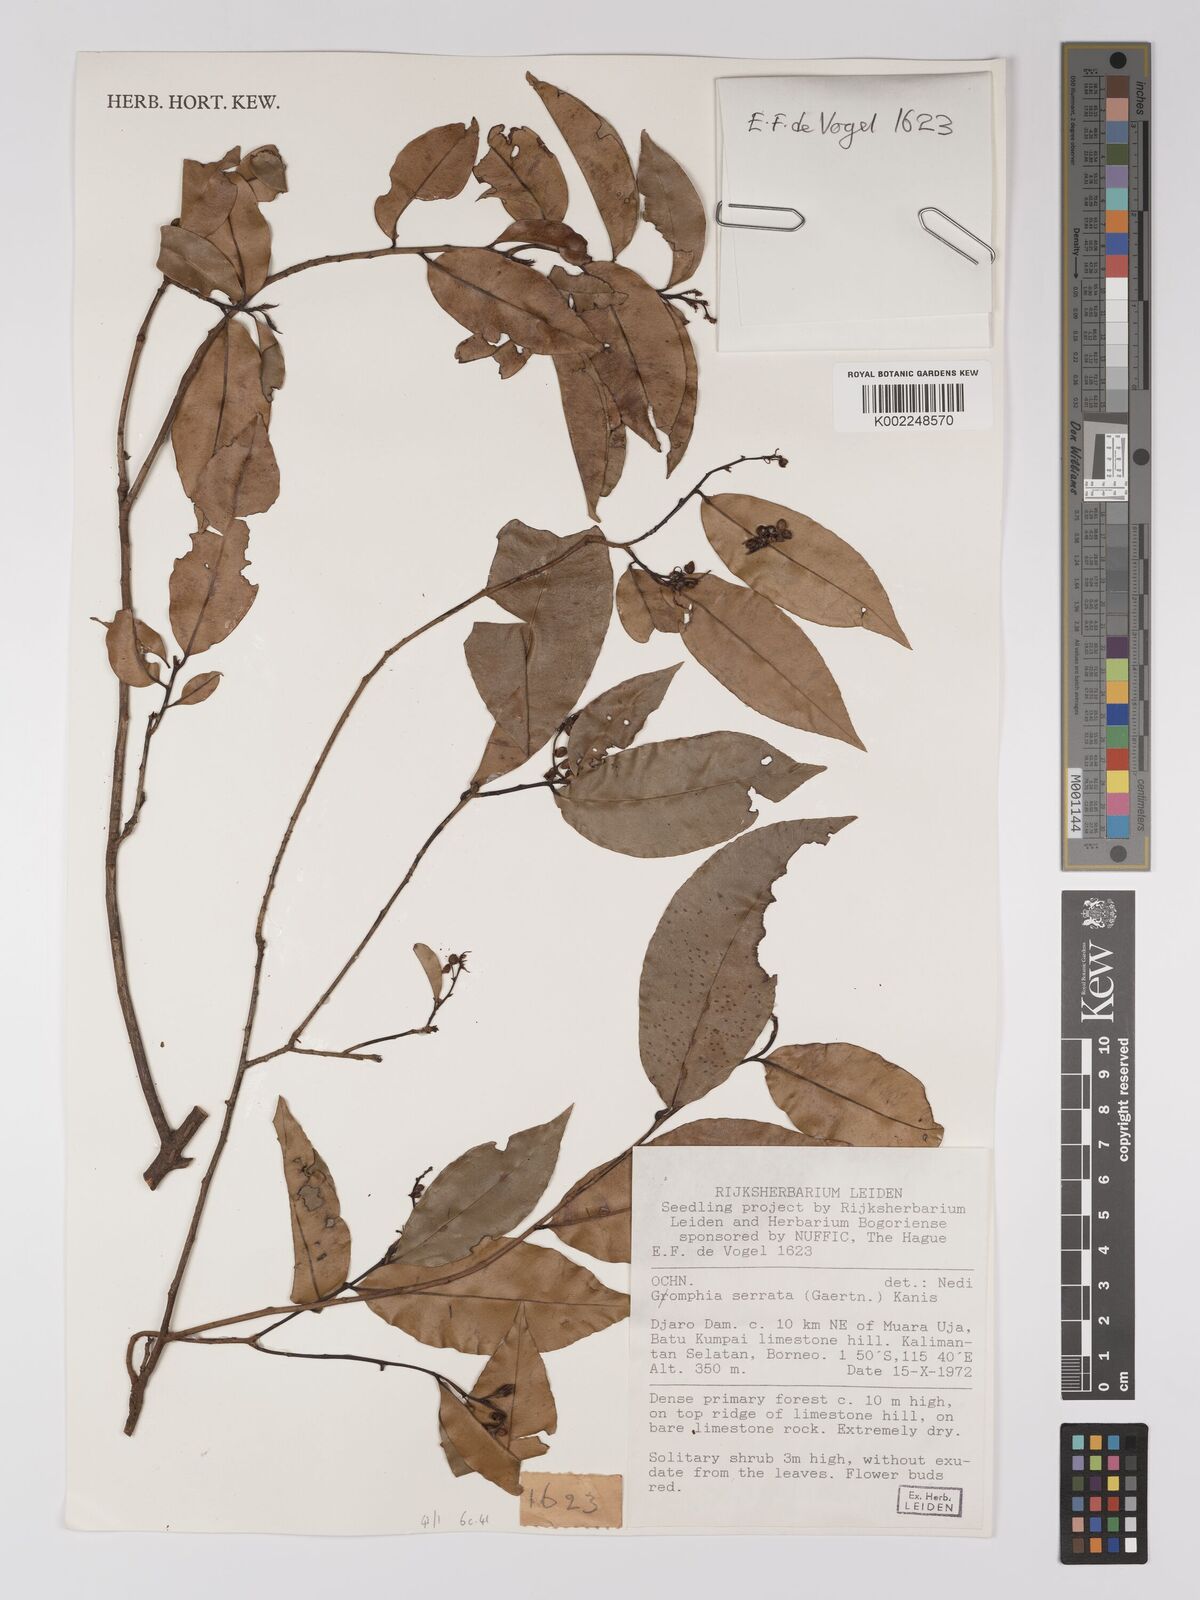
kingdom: Plantae
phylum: Tracheophyta
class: Magnoliopsida
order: Malpighiales
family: Ochnaceae
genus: Campylospermum
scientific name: Campylospermum
